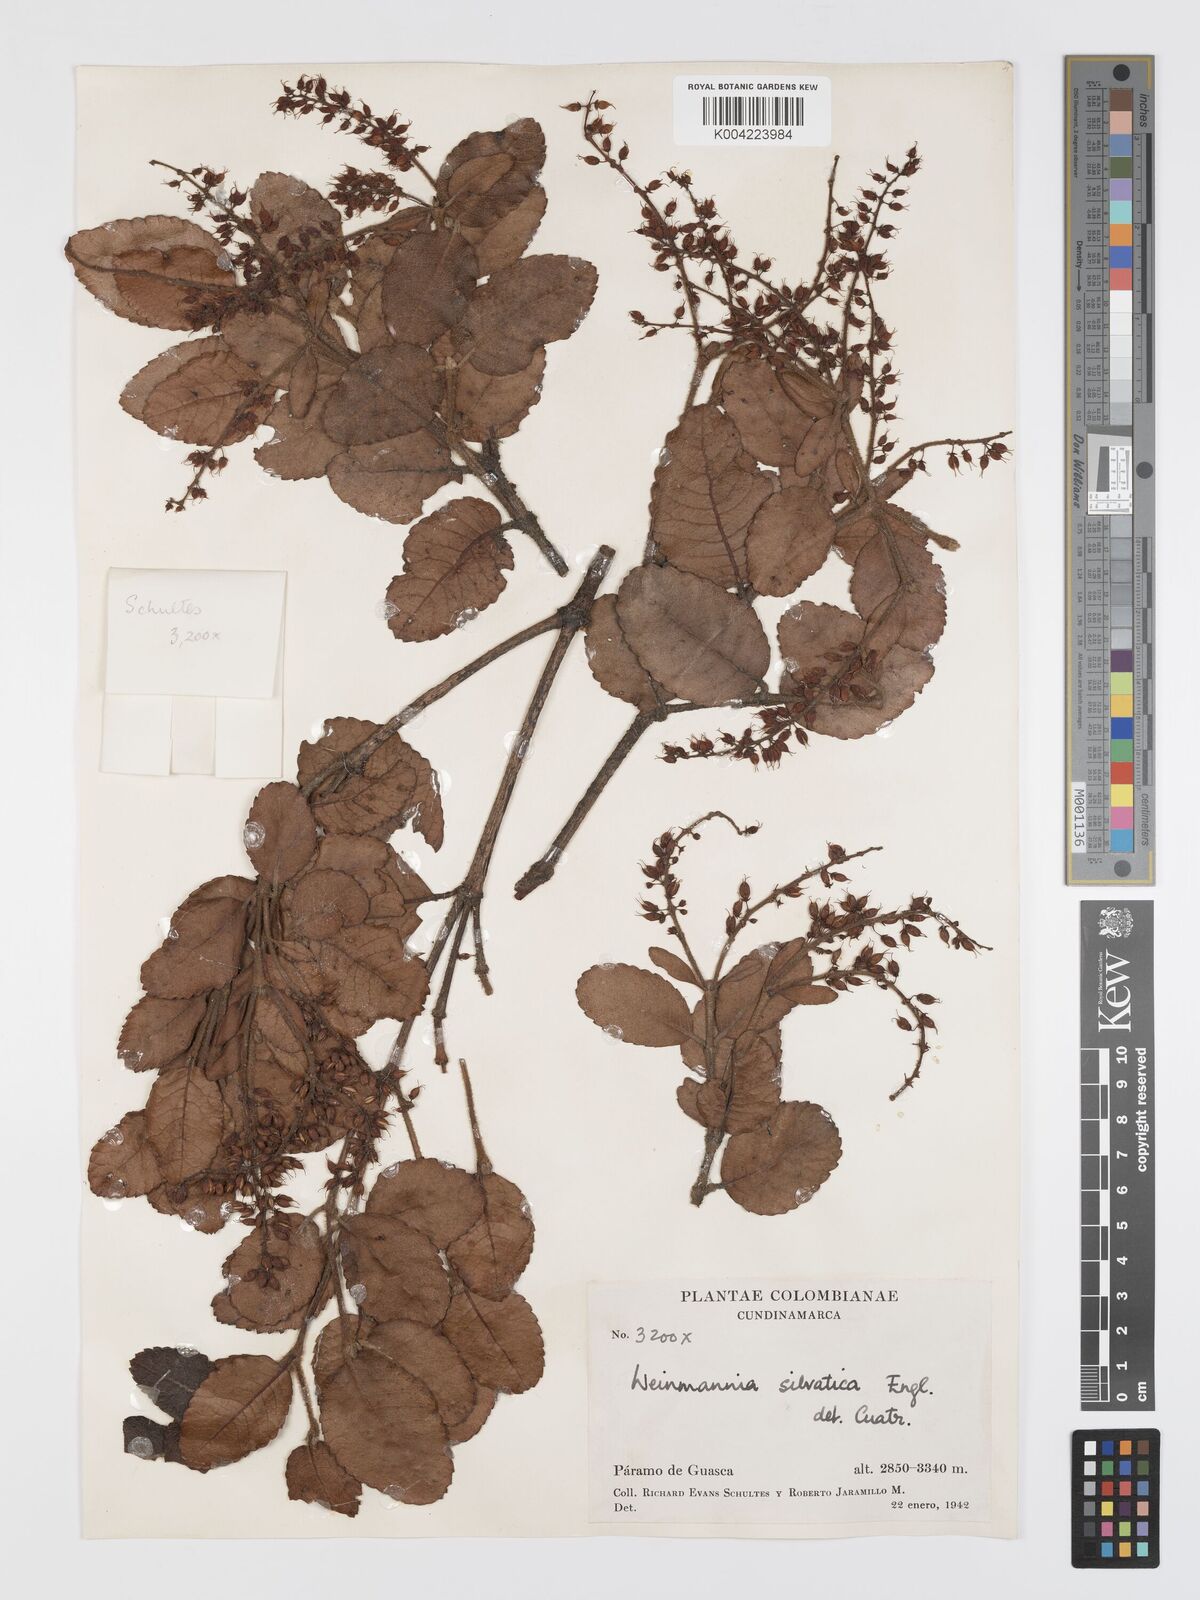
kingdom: Plantae
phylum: Tracheophyta
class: Magnoliopsida
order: Oxalidales
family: Cunoniaceae
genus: Weinmannia
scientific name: Weinmannia auriculata
